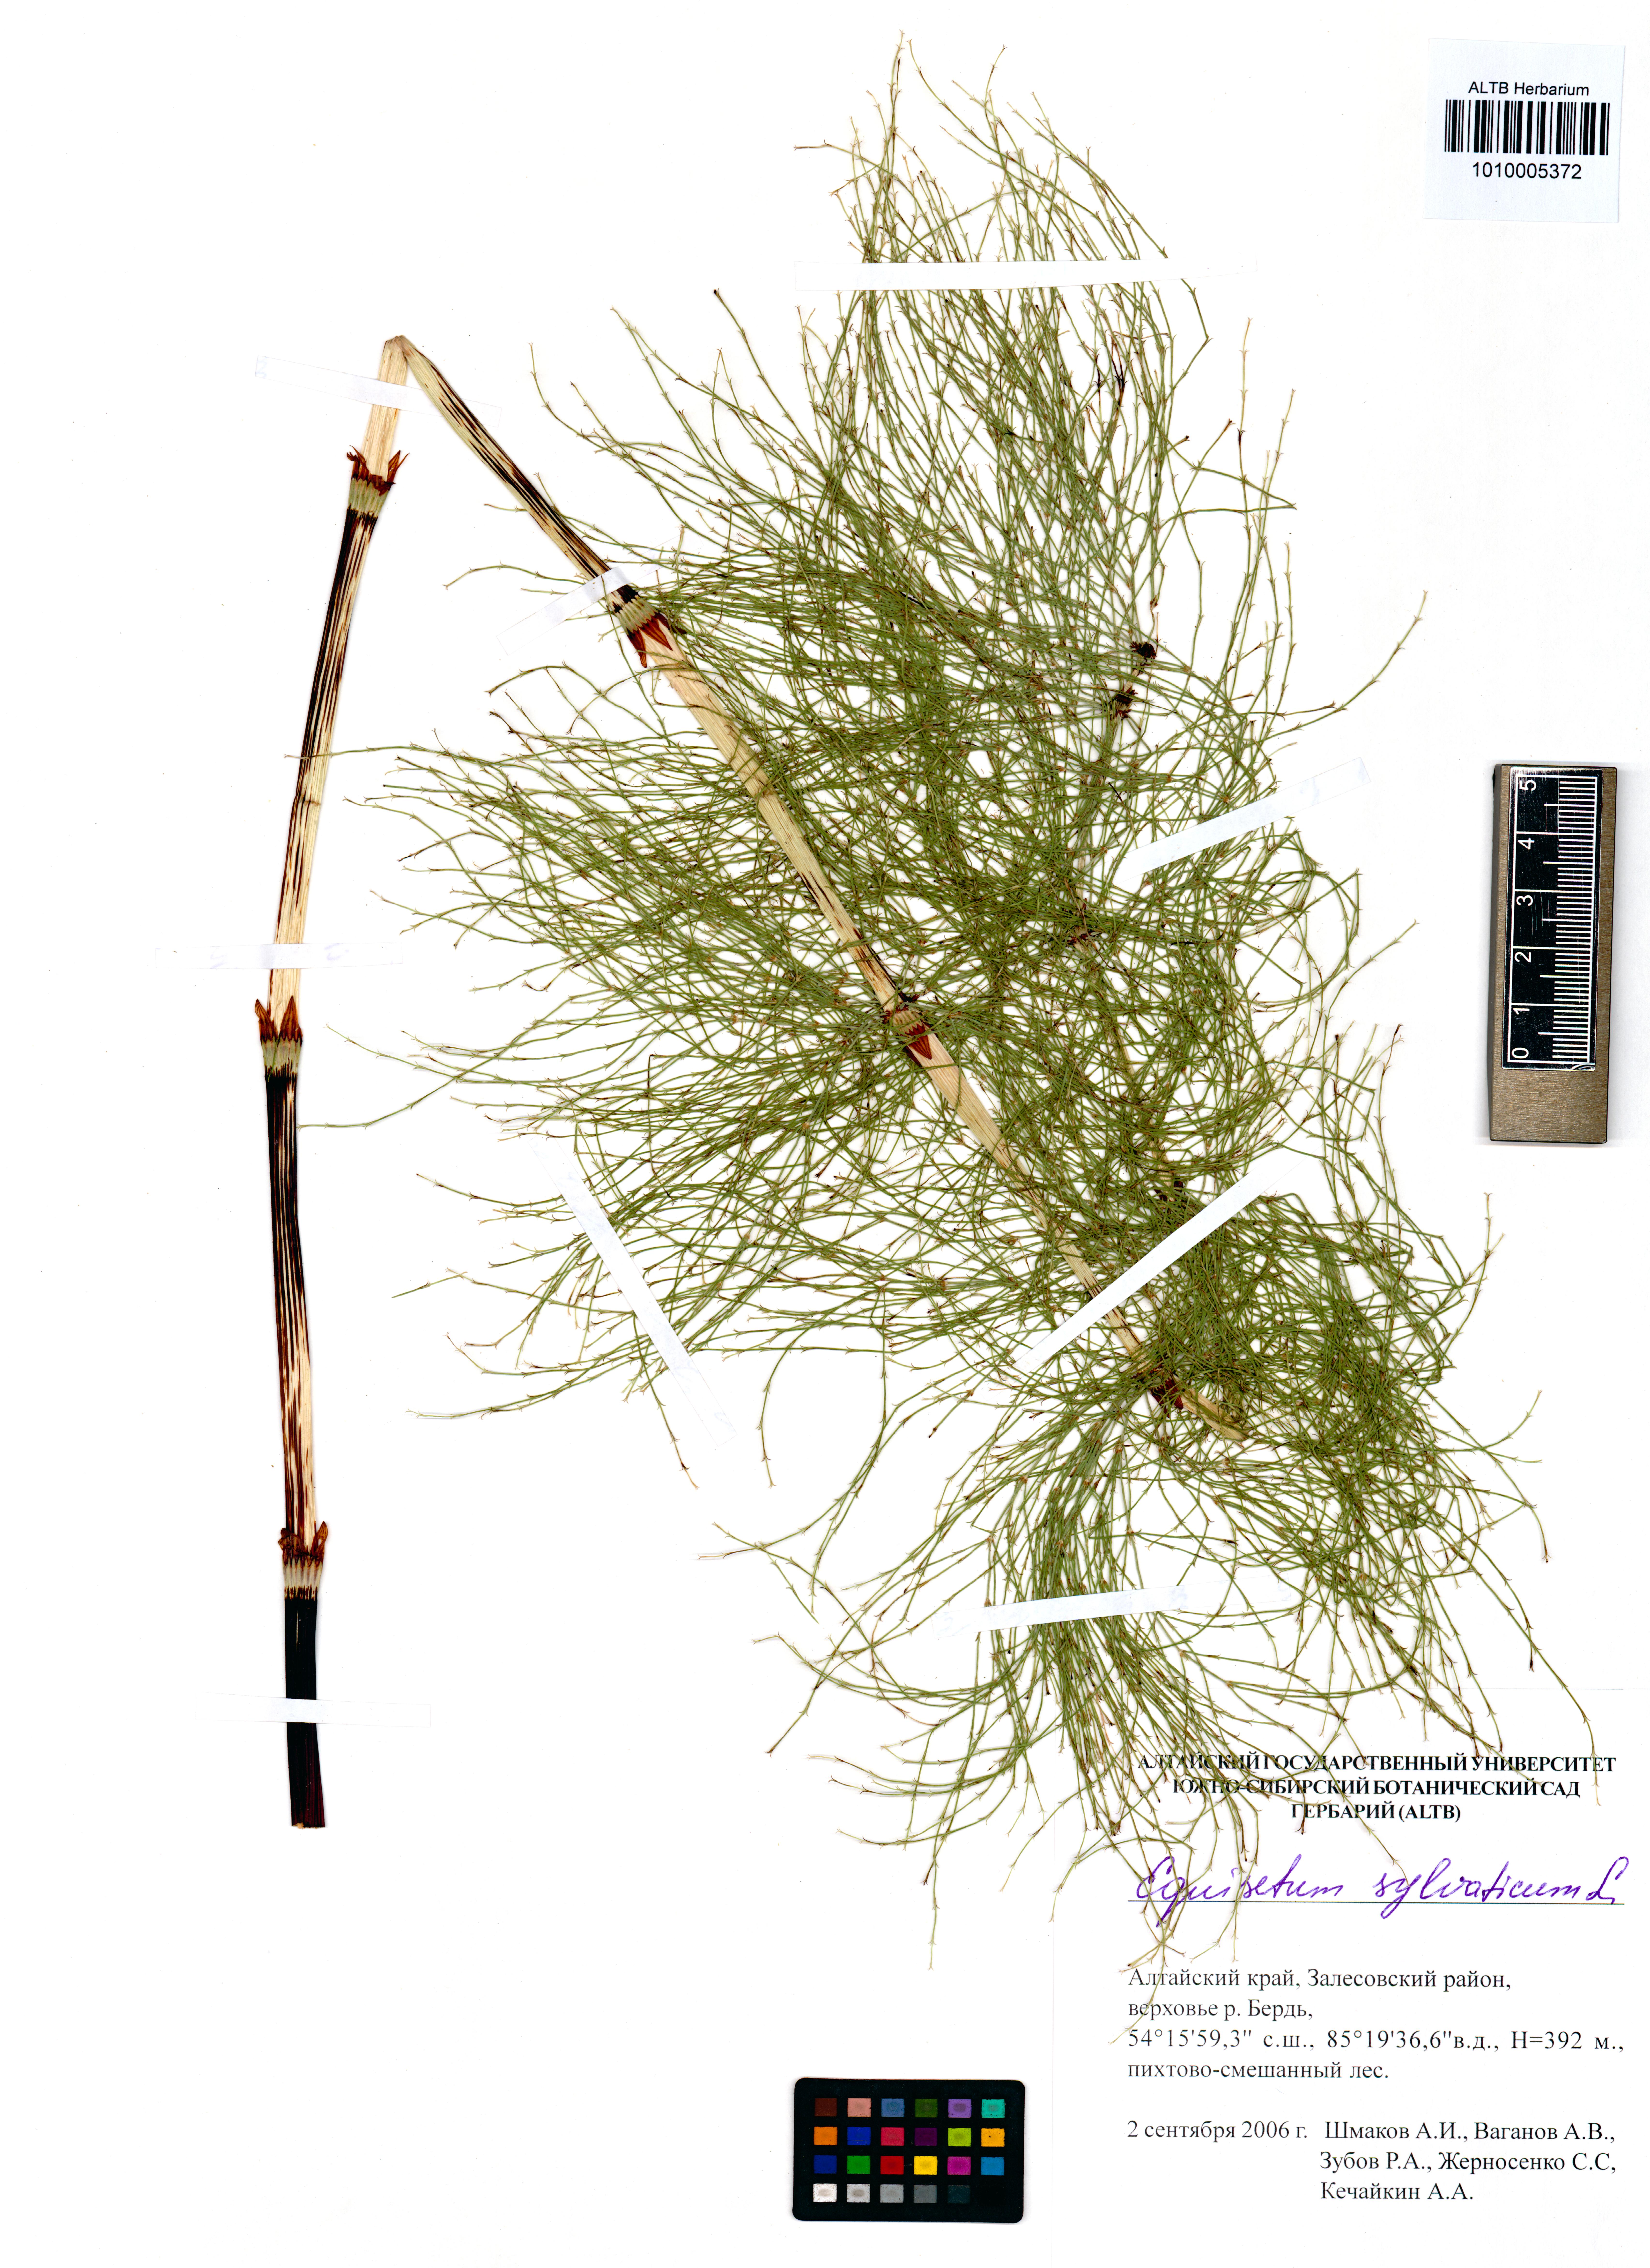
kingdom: Plantae
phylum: Tracheophyta
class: Polypodiopsida
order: Equisetales
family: Equisetaceae
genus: Equisetum
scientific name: Equisetum sylvaticum
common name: Wood horsetail
